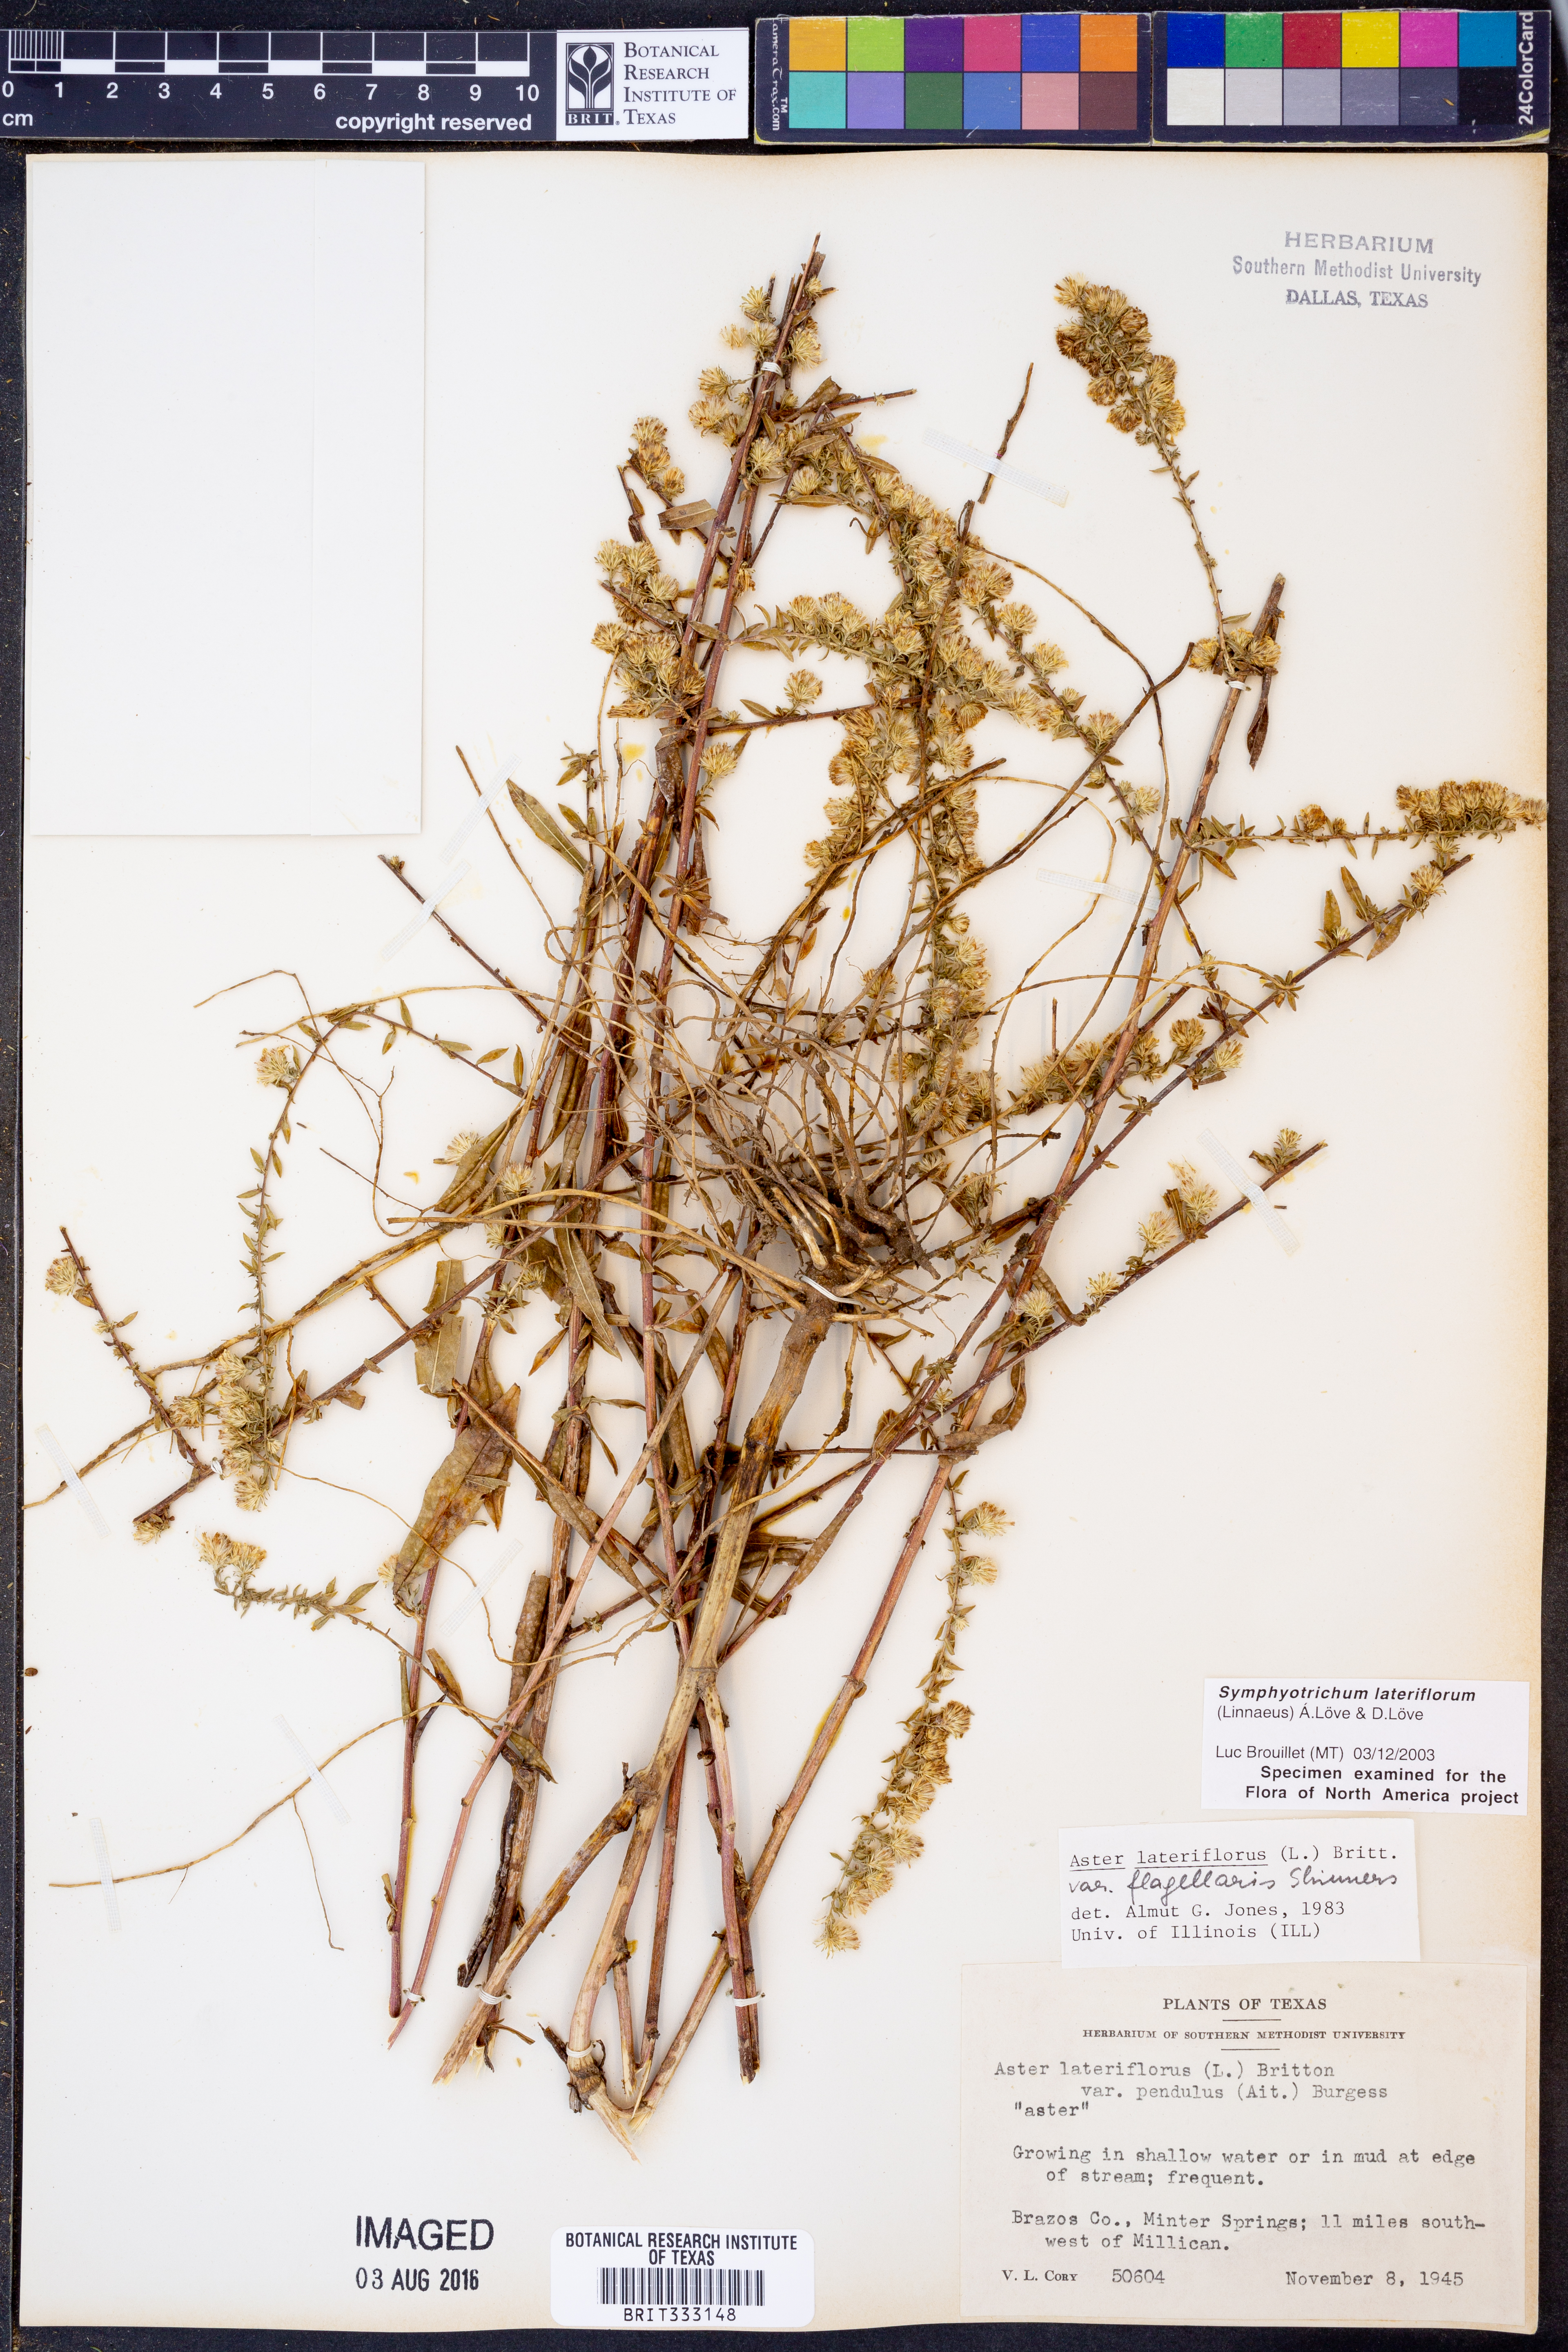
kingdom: Plantae
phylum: Tracheophyta
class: Magnoliopsida
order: Asterales
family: Asteraceae
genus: Symphyotrichum
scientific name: Symphyotrichum lateriflorum
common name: Calico aster
